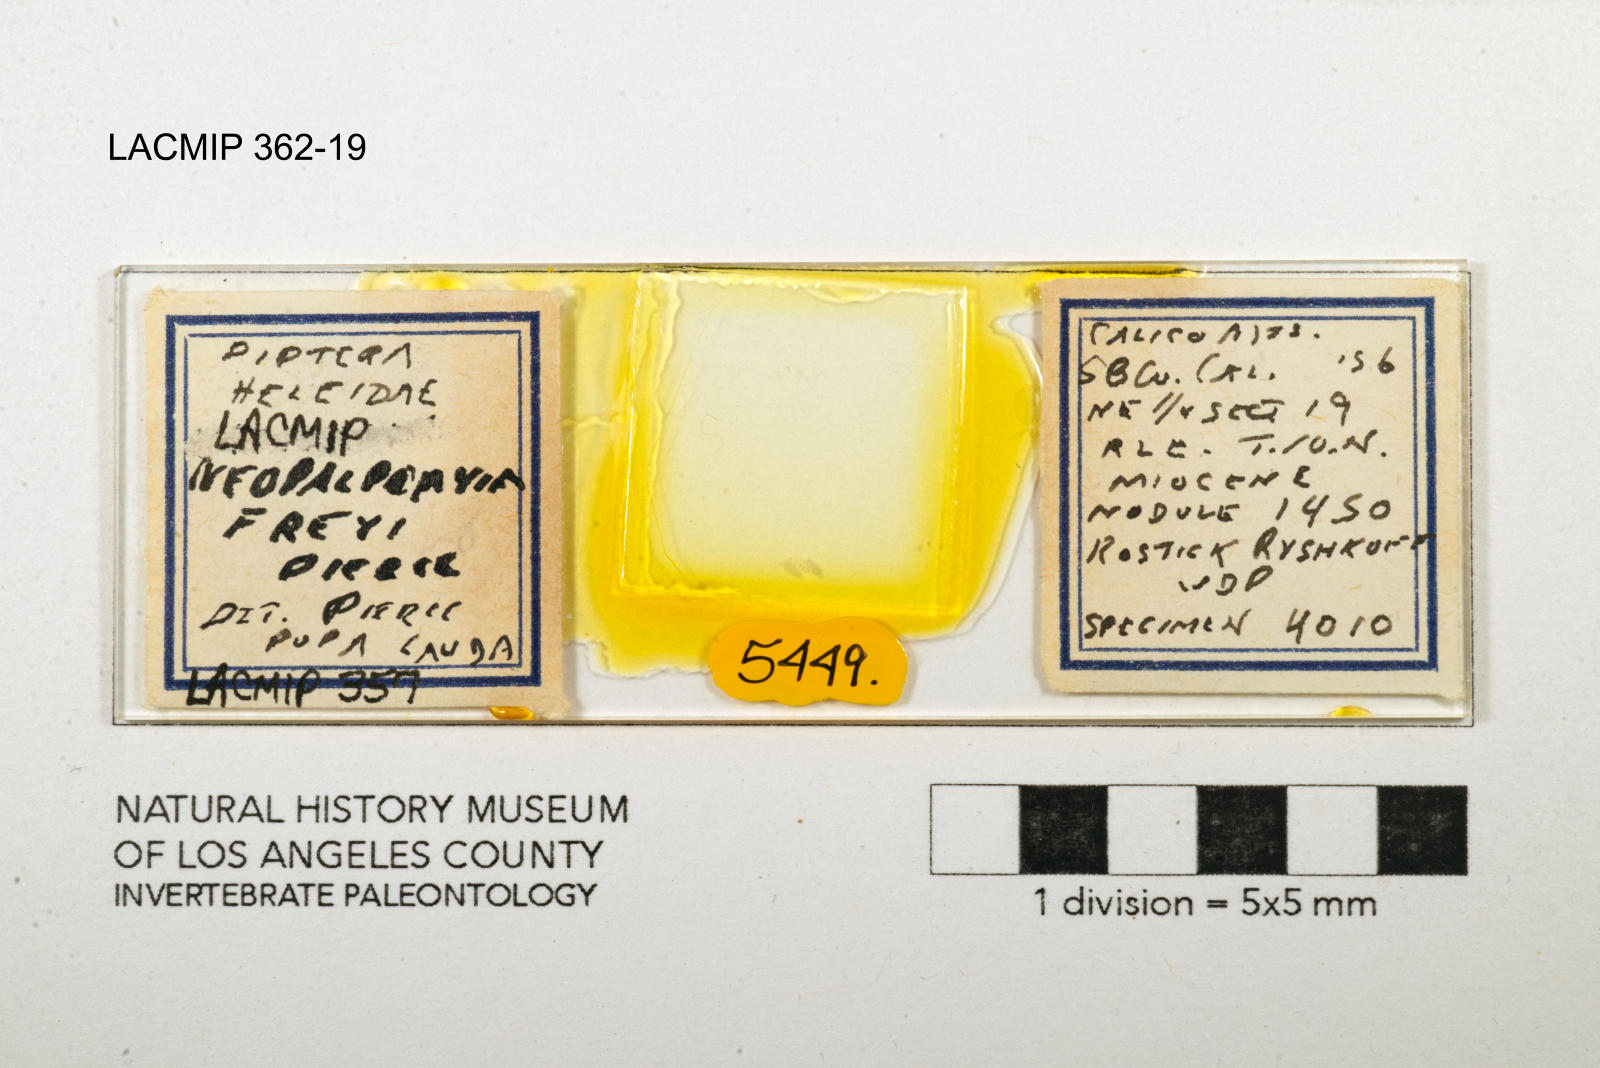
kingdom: Animalia
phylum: Arthropoda
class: Insecta
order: Diptera
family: Ceratopogonidae
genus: Palpomyia
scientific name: Palpomyia freyi
